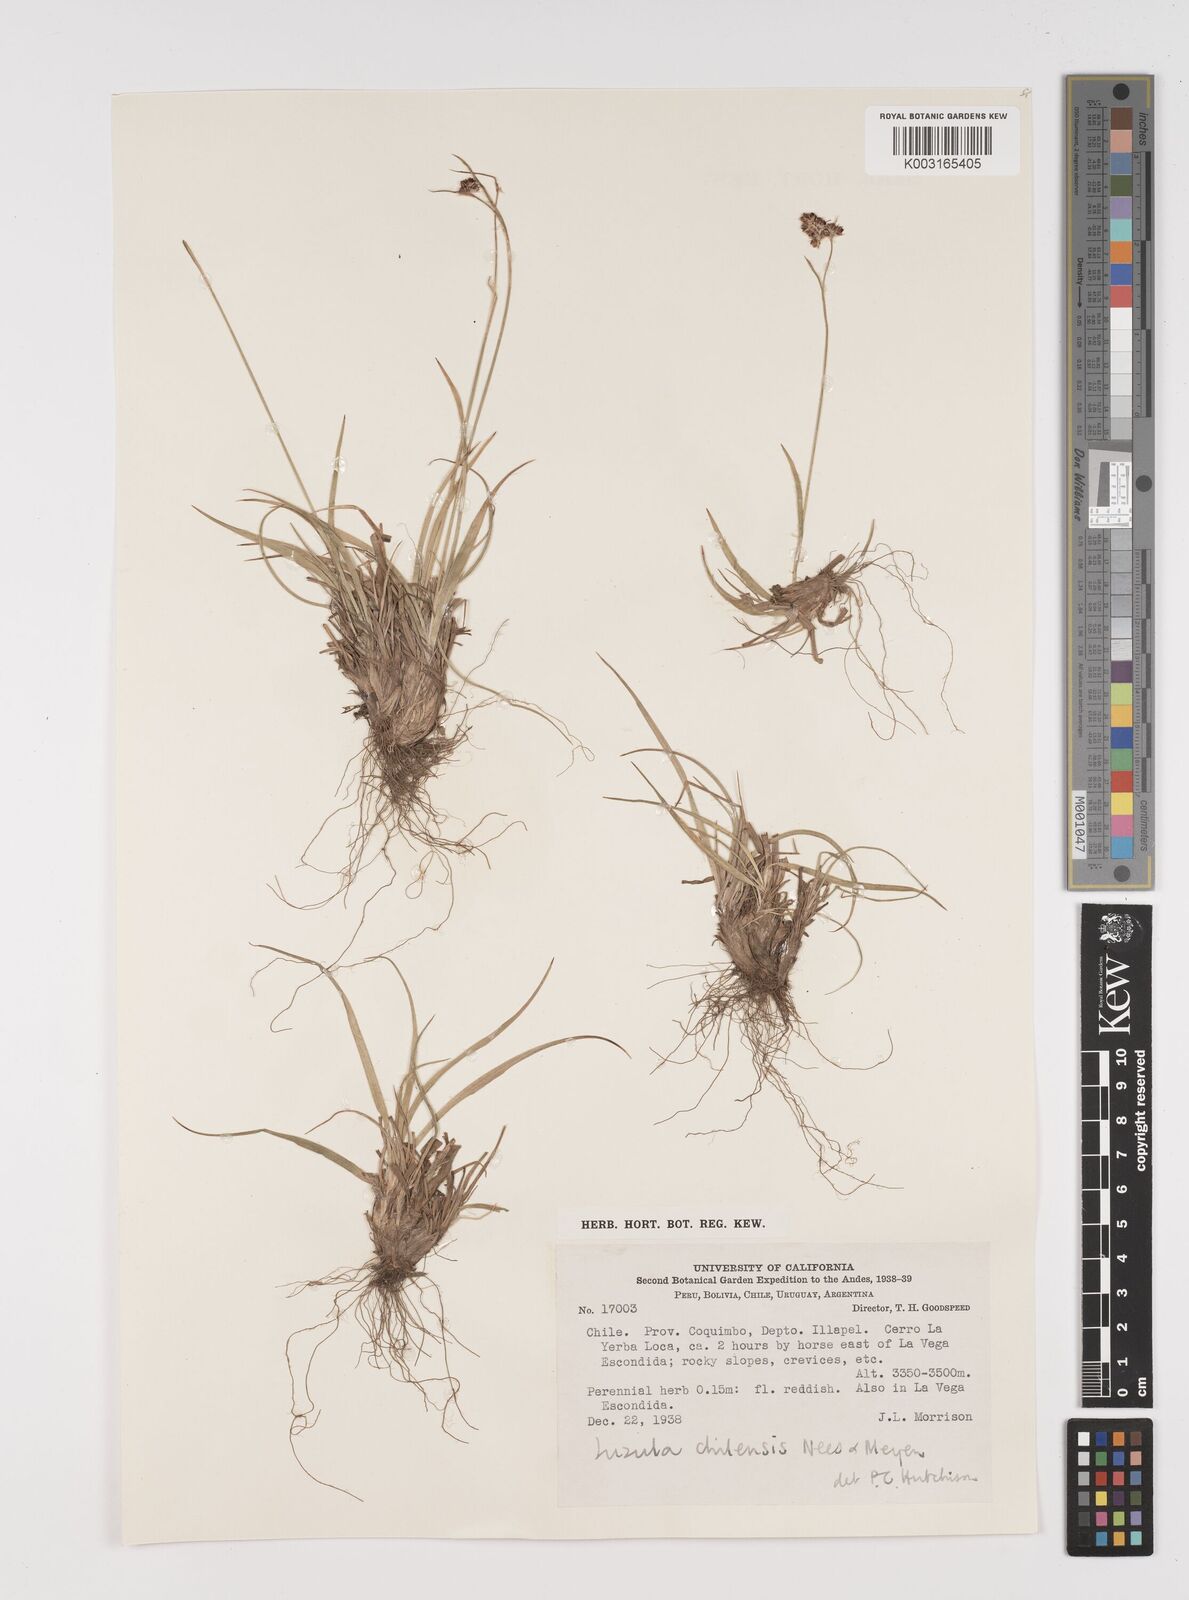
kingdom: Plantae
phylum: Tracheophyta
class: Liliopsida
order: Poales
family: Juncaceae
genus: Luzula
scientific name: Luzula chilensis
